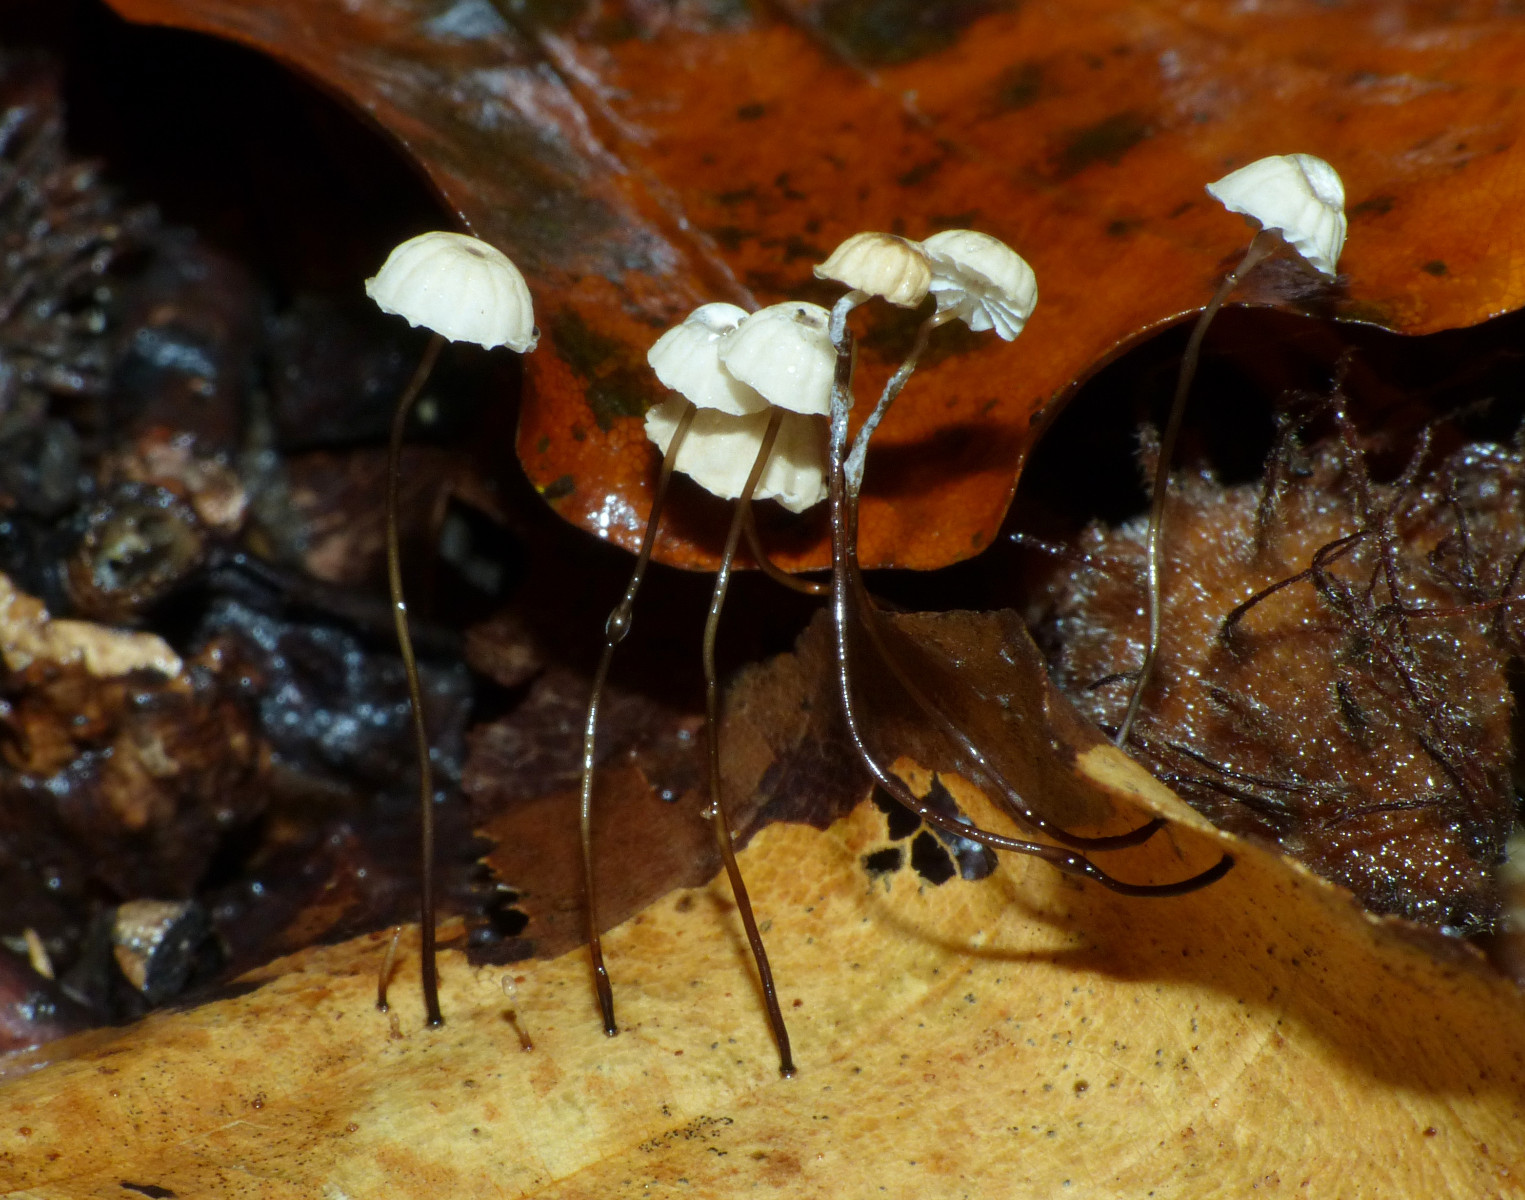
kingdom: Fungi
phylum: Basidiomycota
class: Agaricomycetes
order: Agaricales
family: Marasmiaceae
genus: Marasmius
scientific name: Marasmius bulliardii
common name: furet bruskhat
